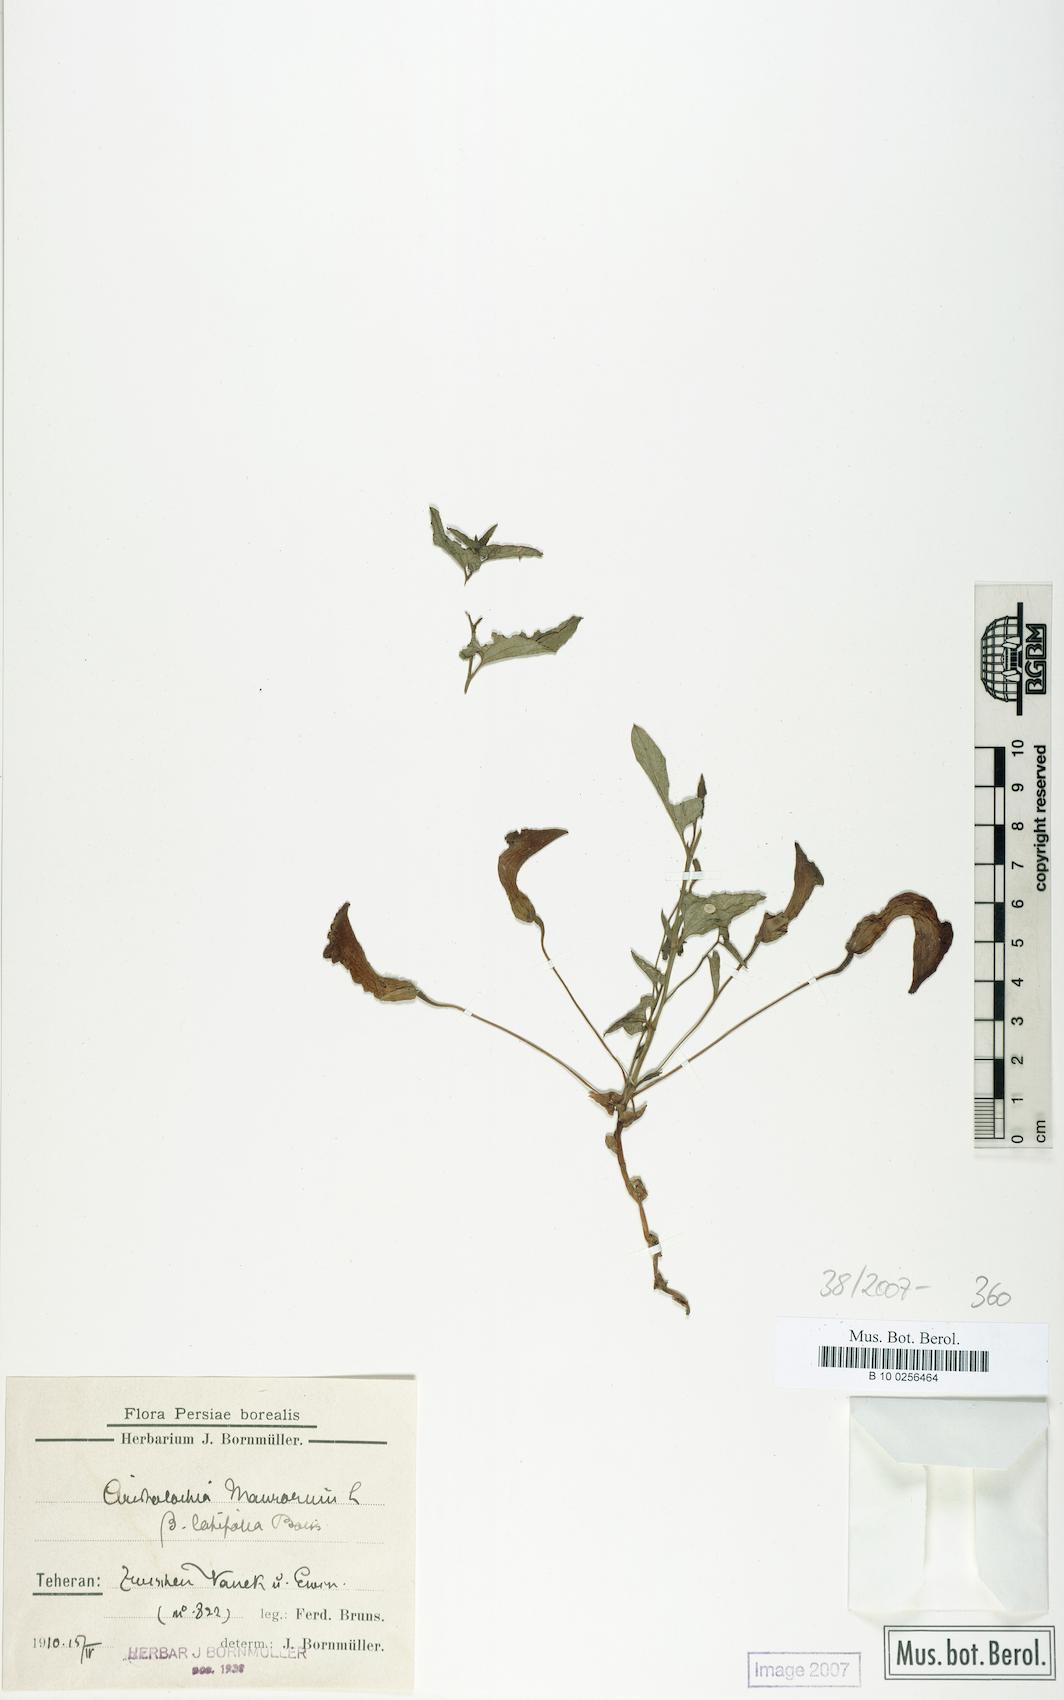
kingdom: Plantae
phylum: Tracheophyta
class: Magnoliopsida
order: Piperales
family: Aristolochiaceae
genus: Aristolochia
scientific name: Aristolochia bottae
